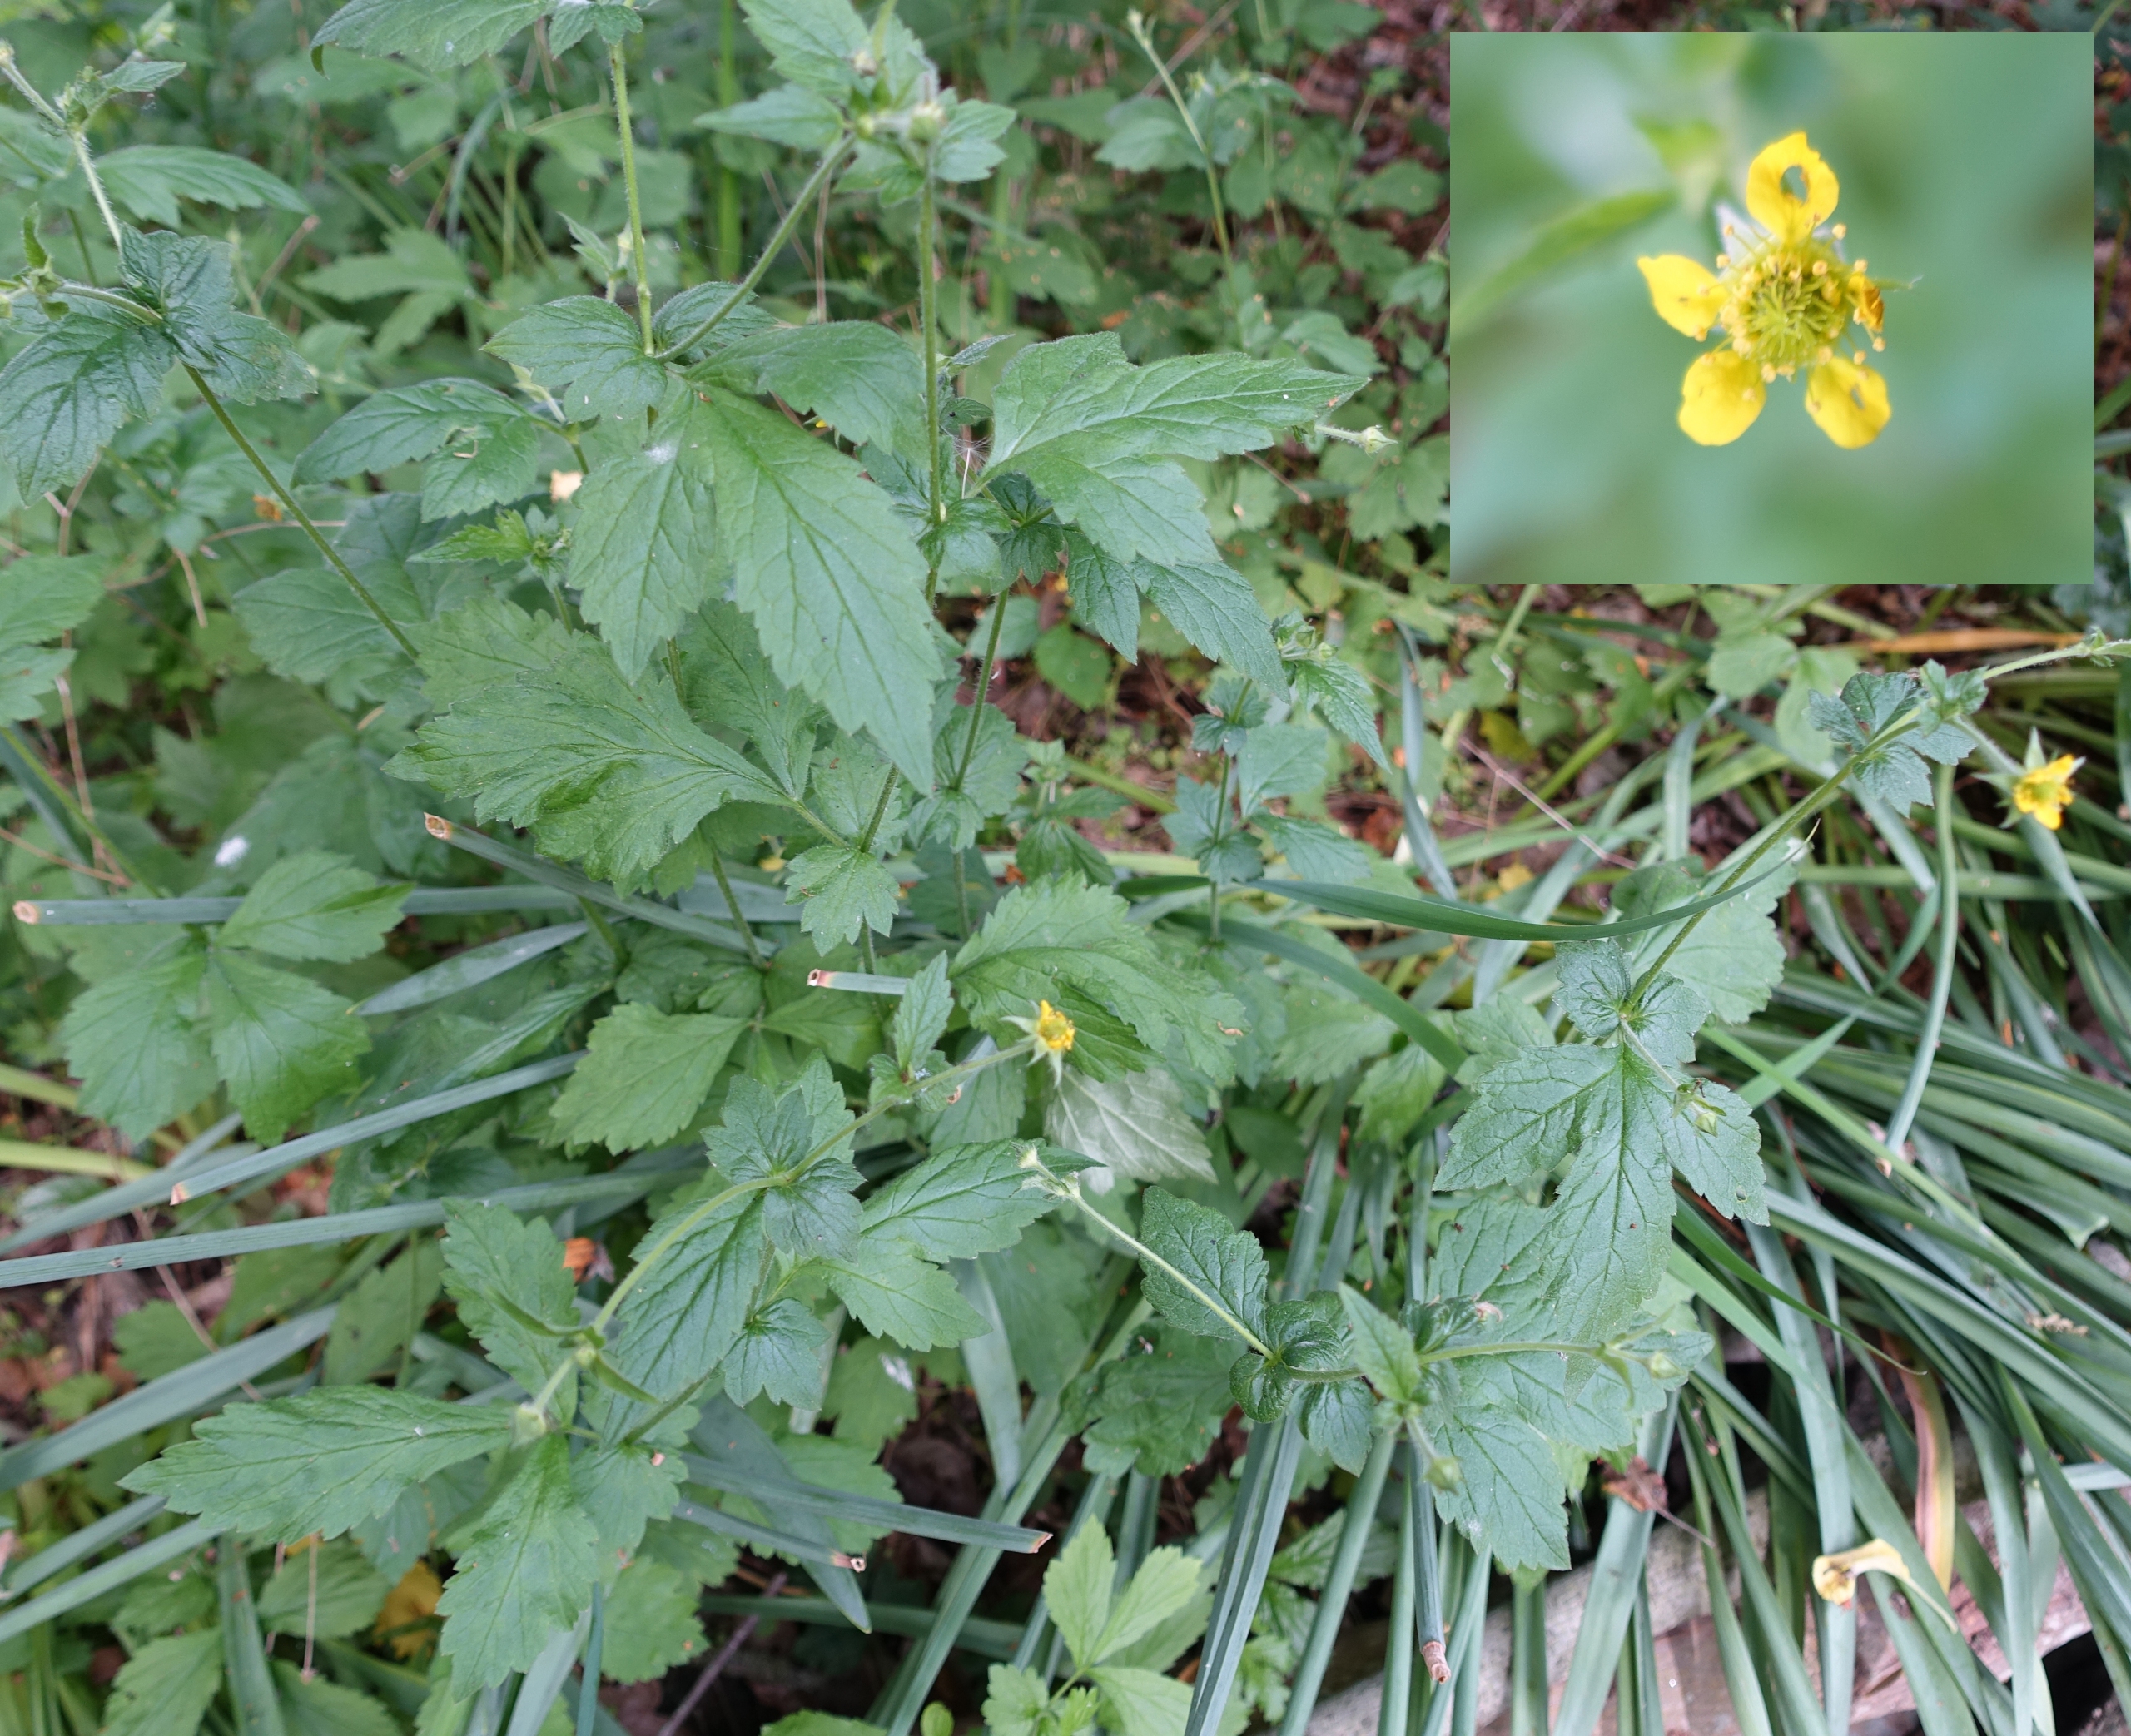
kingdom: Plantae
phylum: Tracheophyta
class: Magnoliopsida
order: Rosales
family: Rosaceae
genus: Geum
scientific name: Geum urbanum
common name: Feber-nellikerod
